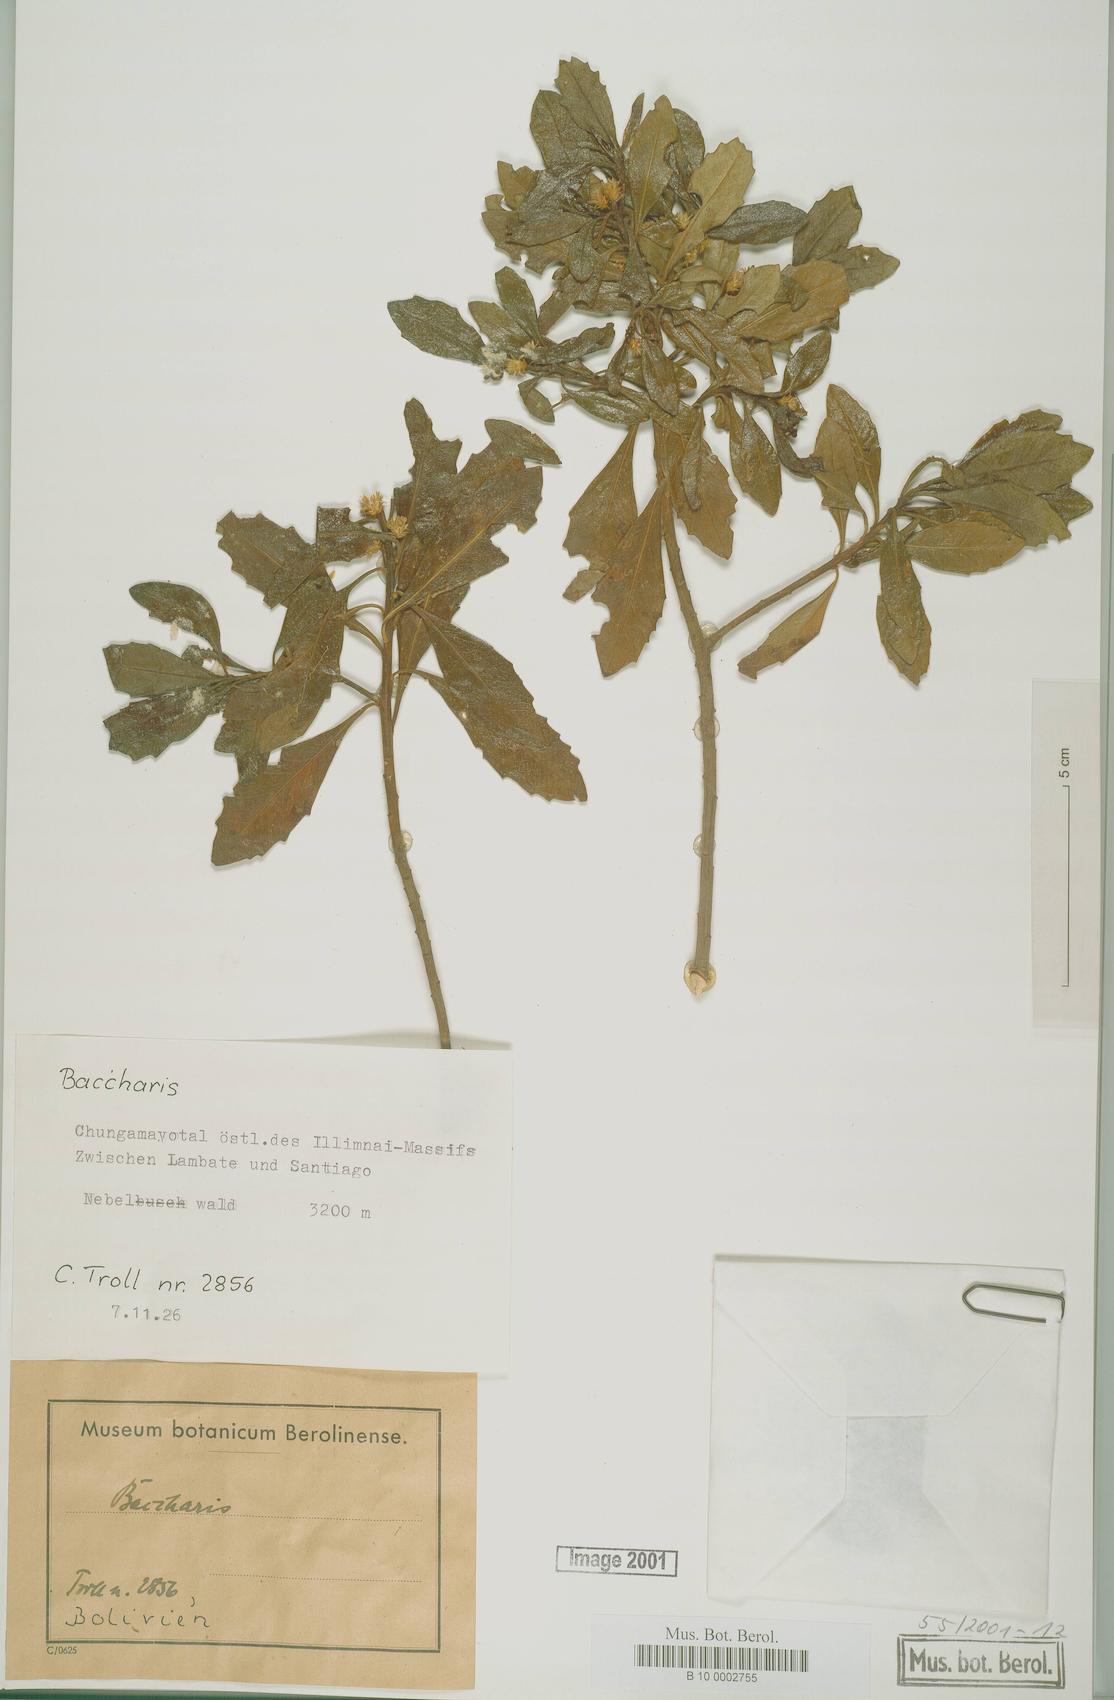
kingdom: Plantae
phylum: Tracheophyta
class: Magnoliopsida
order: Asterales
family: Asteraceae
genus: Baccharis
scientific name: Baccharis
